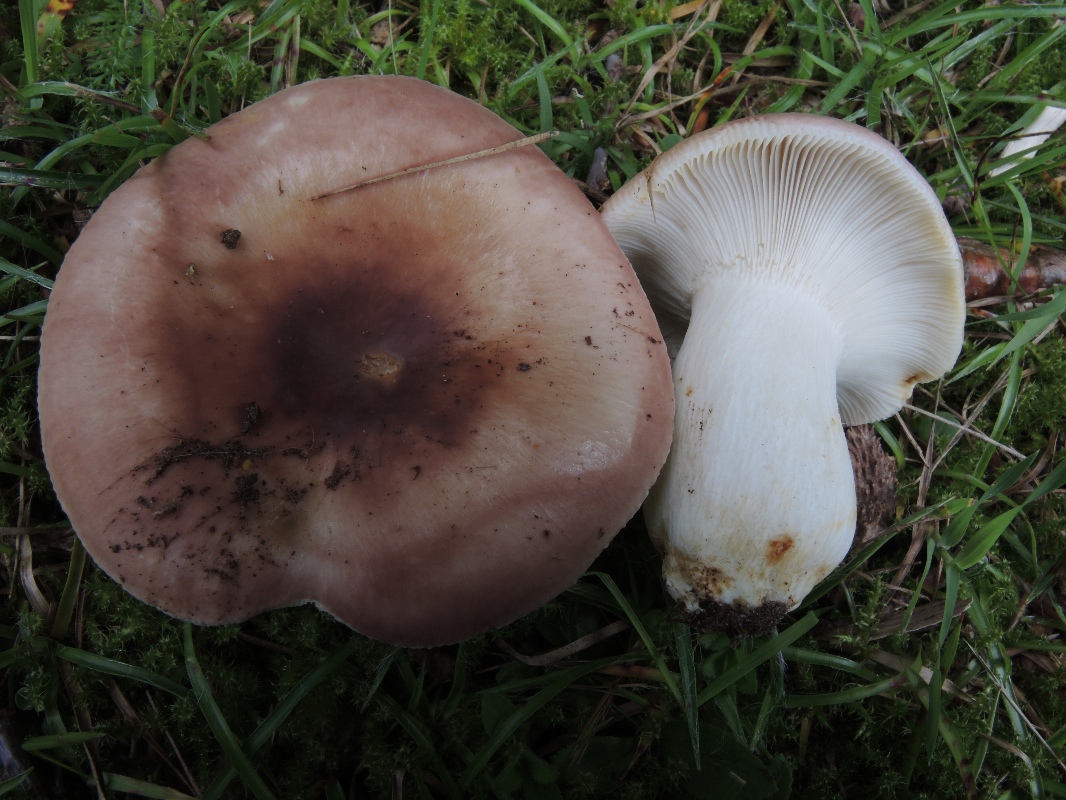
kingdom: Fungi
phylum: Basidiomycota
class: Agaricomycetes
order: Russulales
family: Russulaceae
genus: Russula
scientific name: Russula vesca
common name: spiselig skørhat
